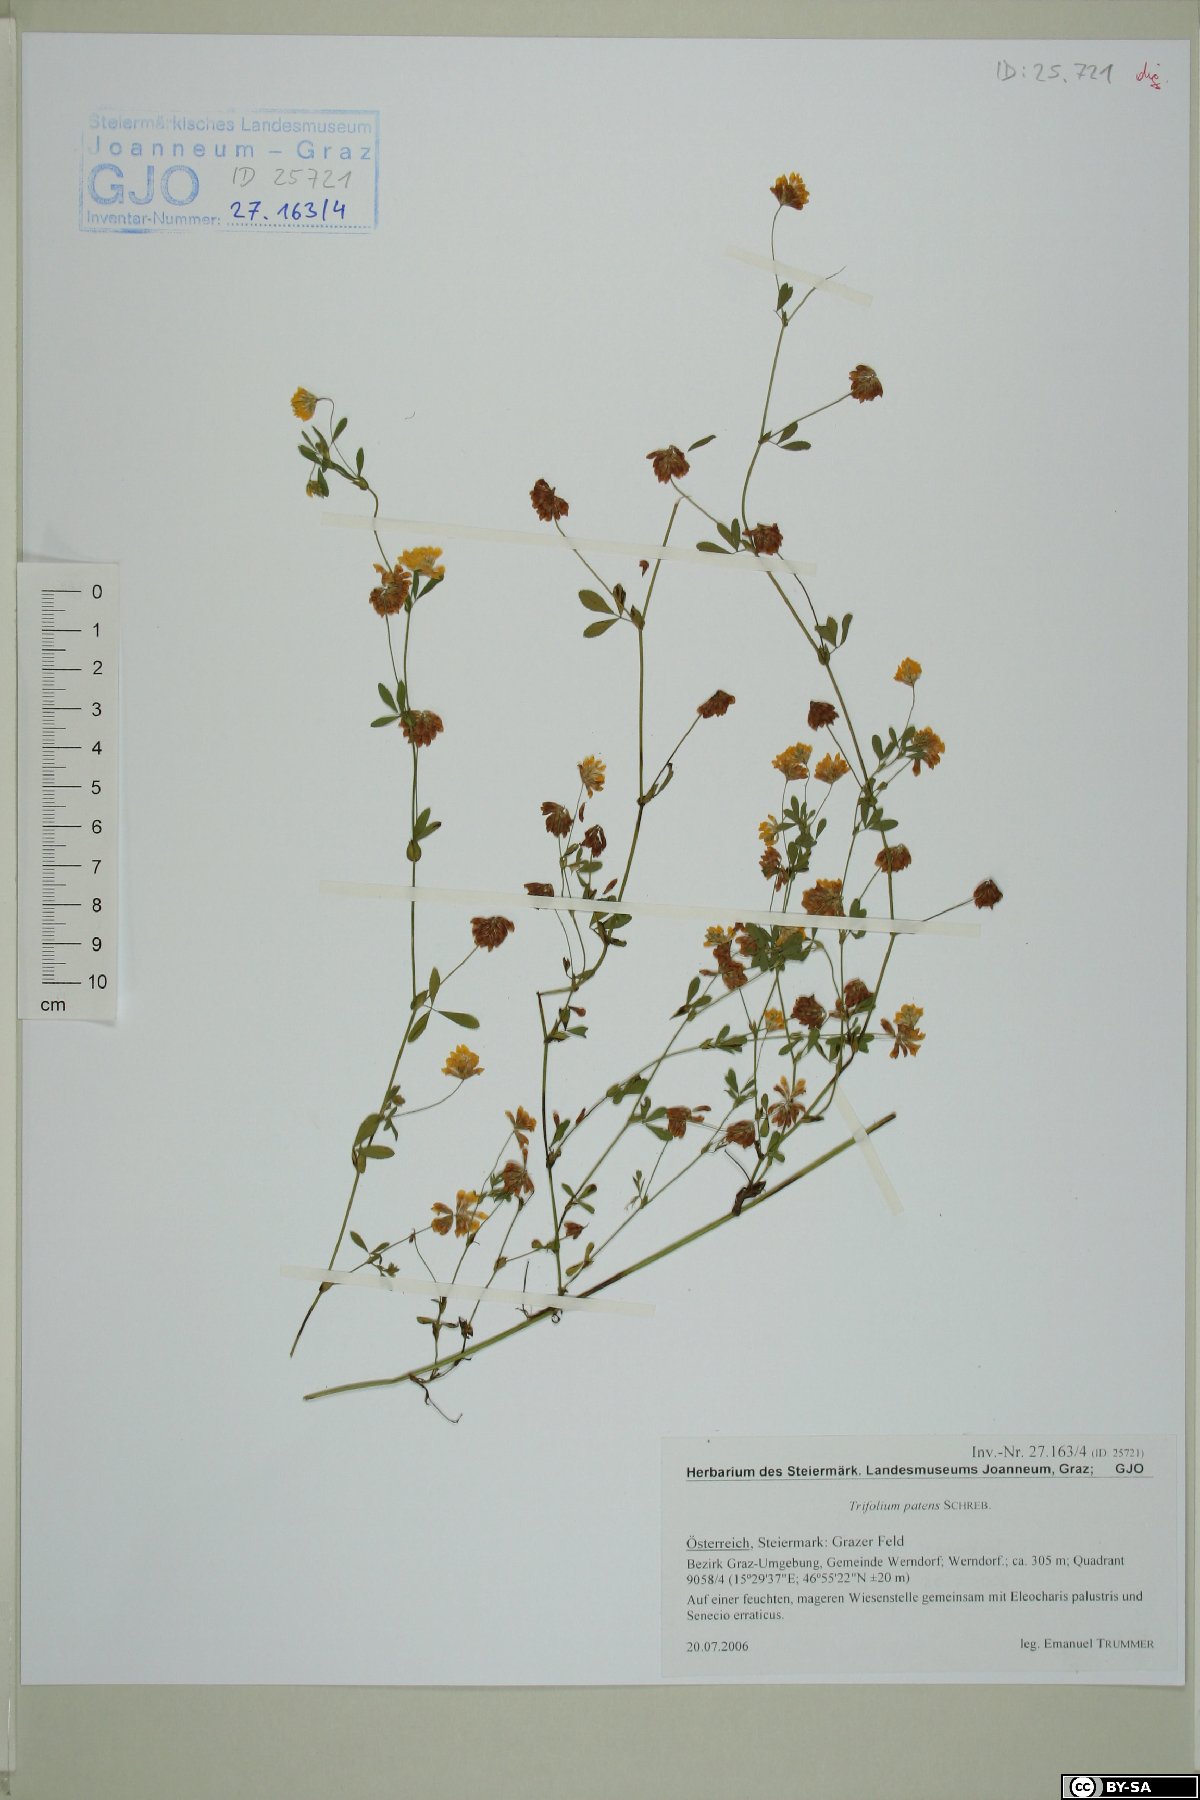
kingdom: Plantae
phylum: Tracheophyta
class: Magnoliopsida
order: Fabales
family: Fabaceae
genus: Trifolium
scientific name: Trifolium patens
